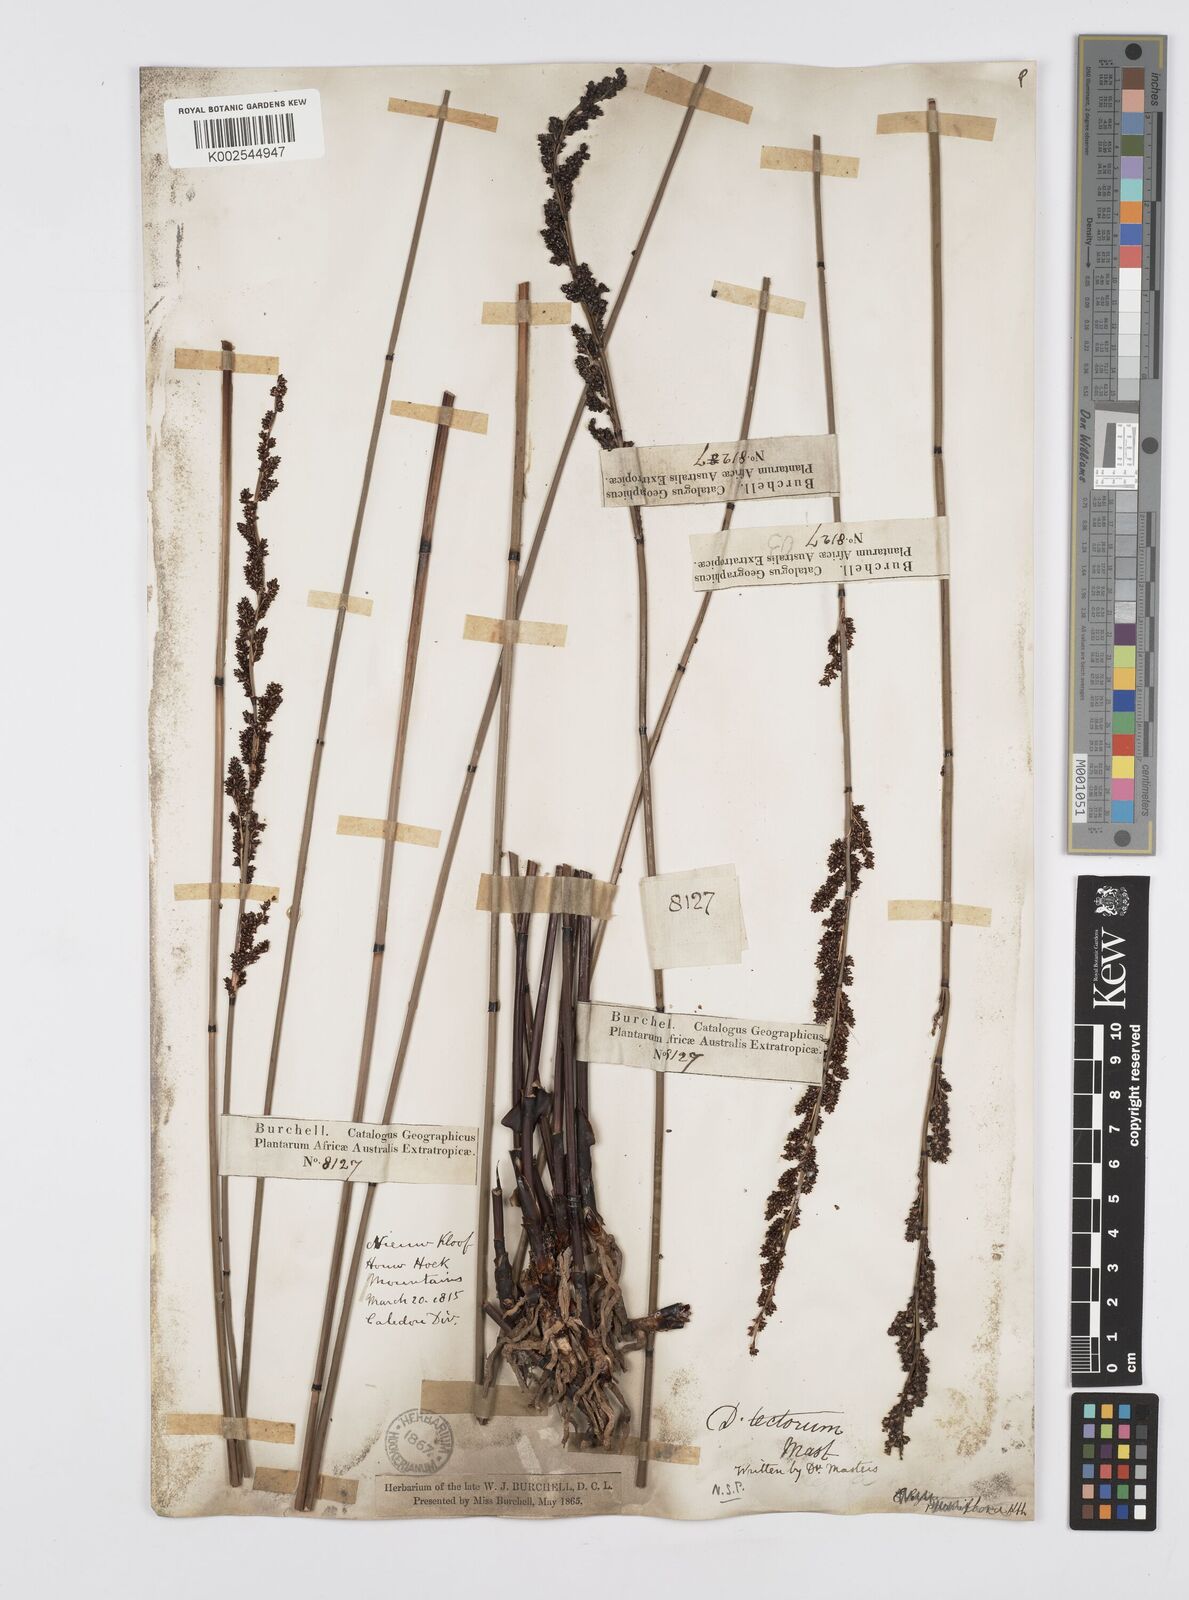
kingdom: Plantae
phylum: Tracheophyta
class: Liliopsida
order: Poales
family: Restionaceae
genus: Elegia
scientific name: Elegia tectorum
